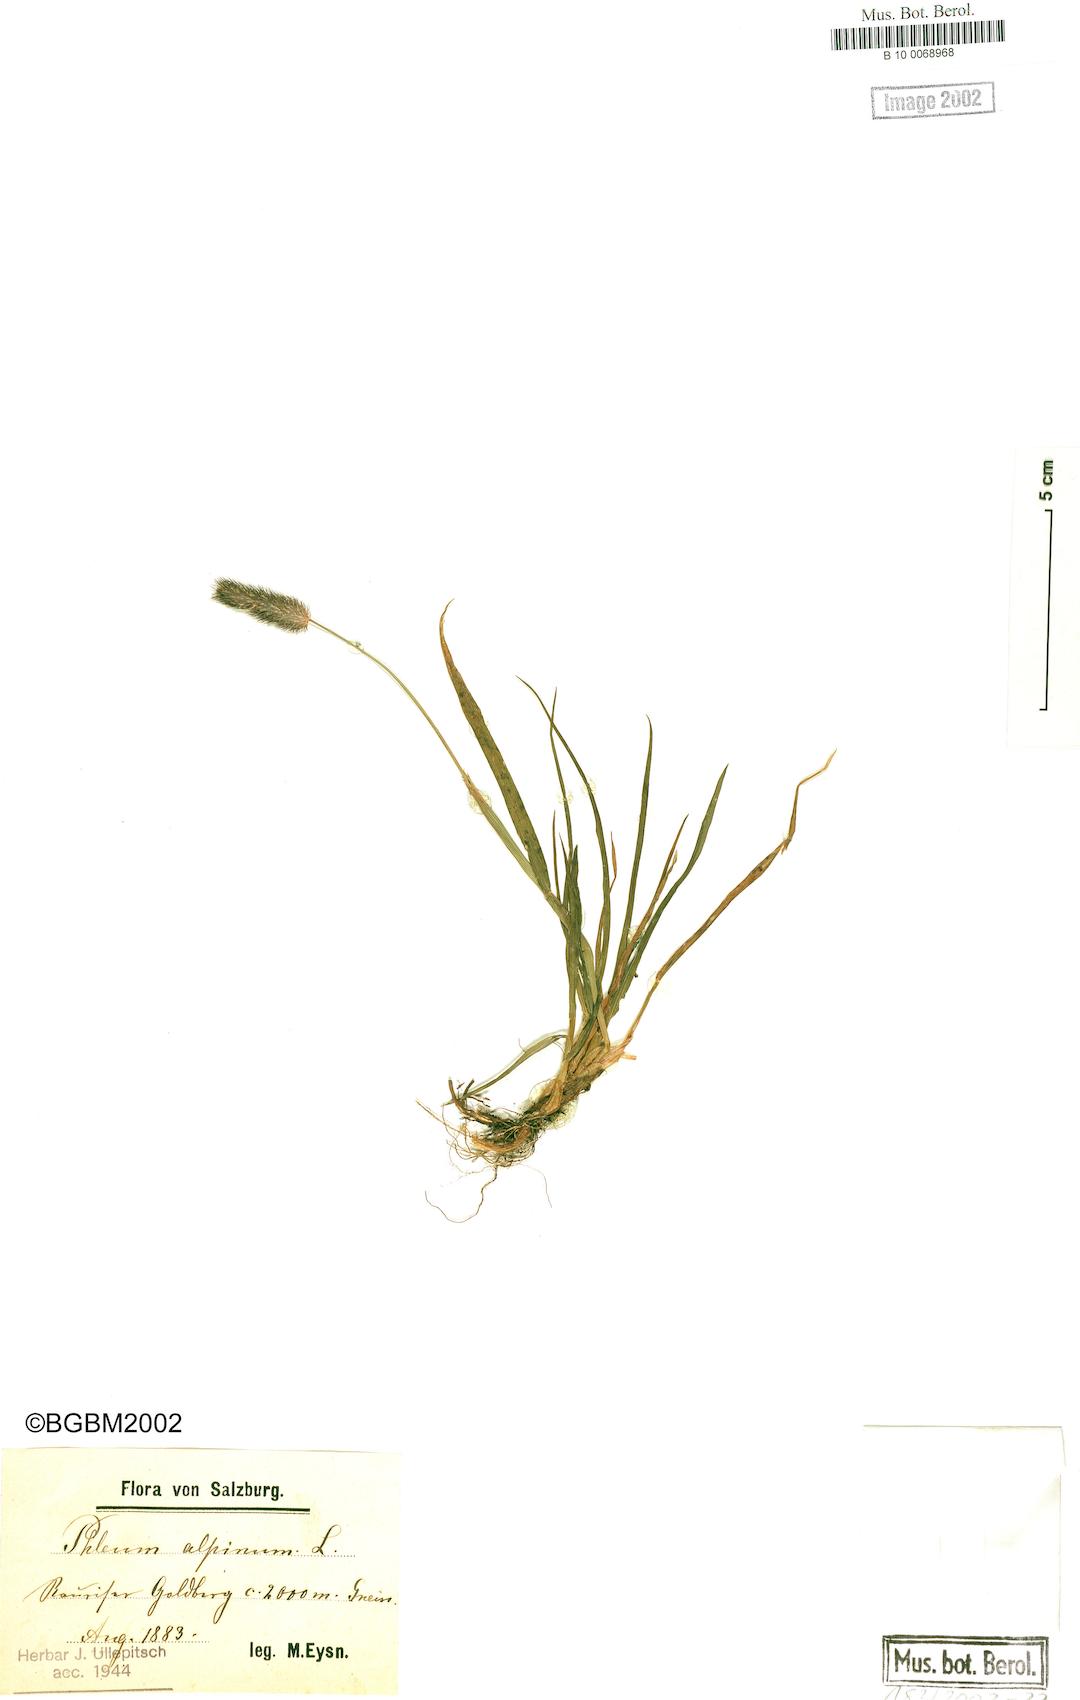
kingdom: Plantae
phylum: Tracheophyta
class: Liliopsida
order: Poales
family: Poaceae
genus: Phleum
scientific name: Phleum alpinum
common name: Alpine cat's-tail
